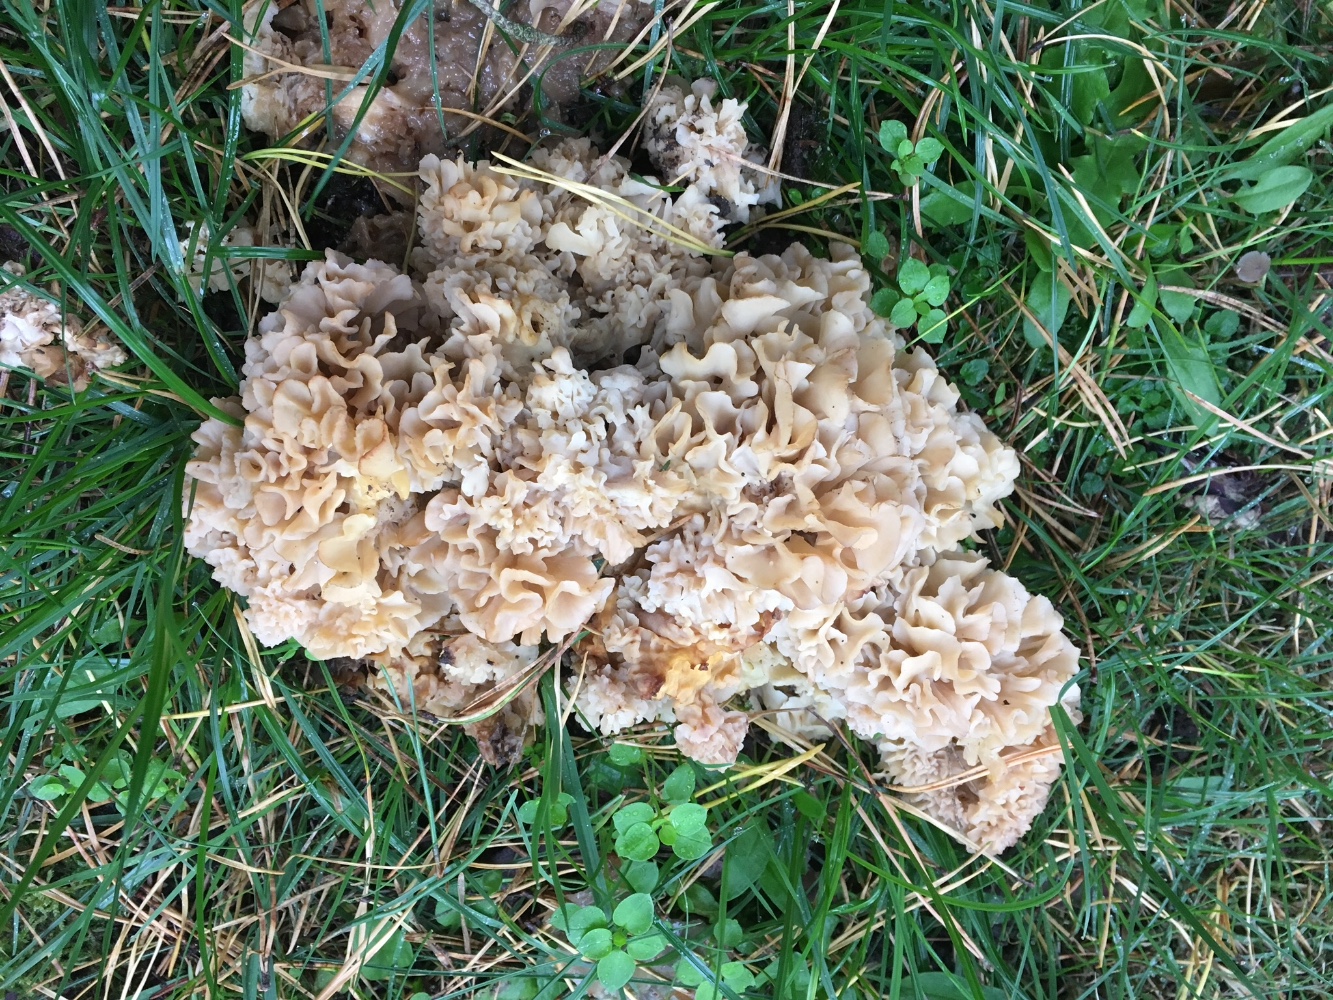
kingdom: Fungi
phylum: Basidiomycota
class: Agaricomycetes
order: Polyporales
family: Sparassidaceae
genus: Sparassis
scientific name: Sparassis crispa
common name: kruset blomkålssvamp
